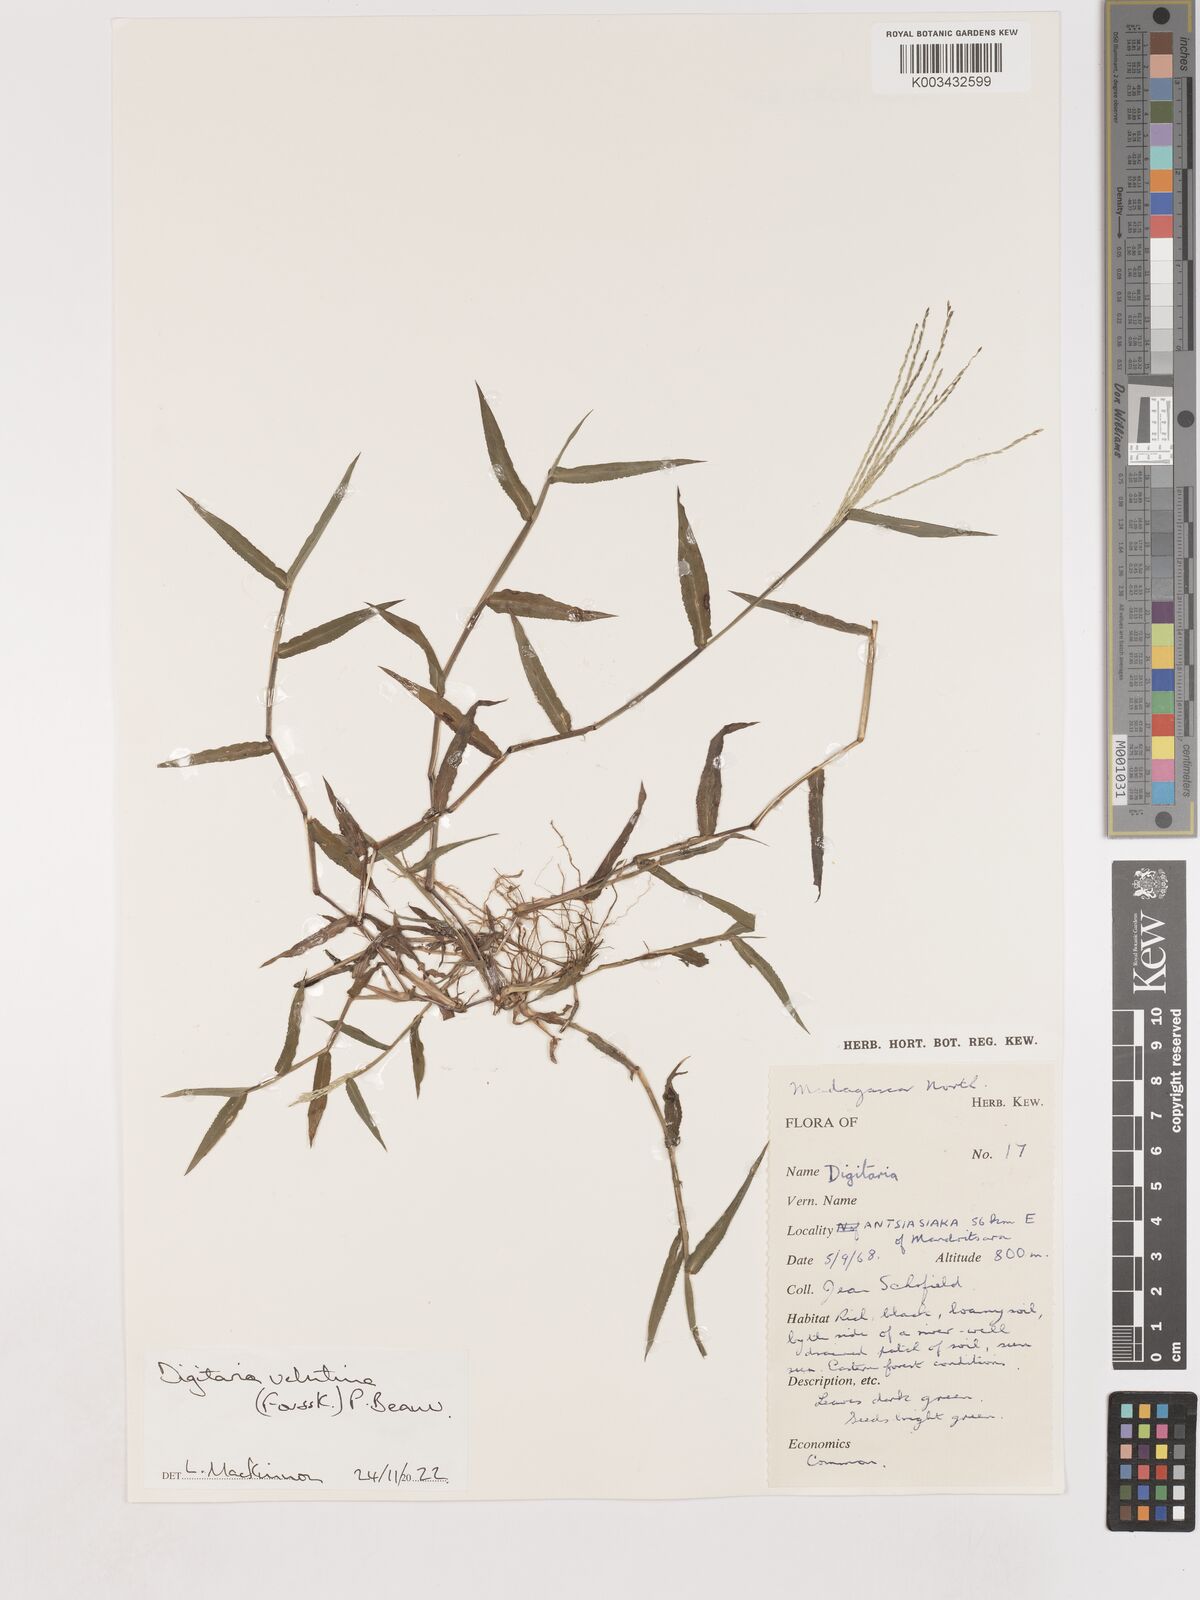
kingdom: Plantae
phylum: Tracheophyta
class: Liliopsida
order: Poales
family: Poaceae
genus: Digitaria
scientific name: Digitaria velutina
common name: Long-plume finger grass
